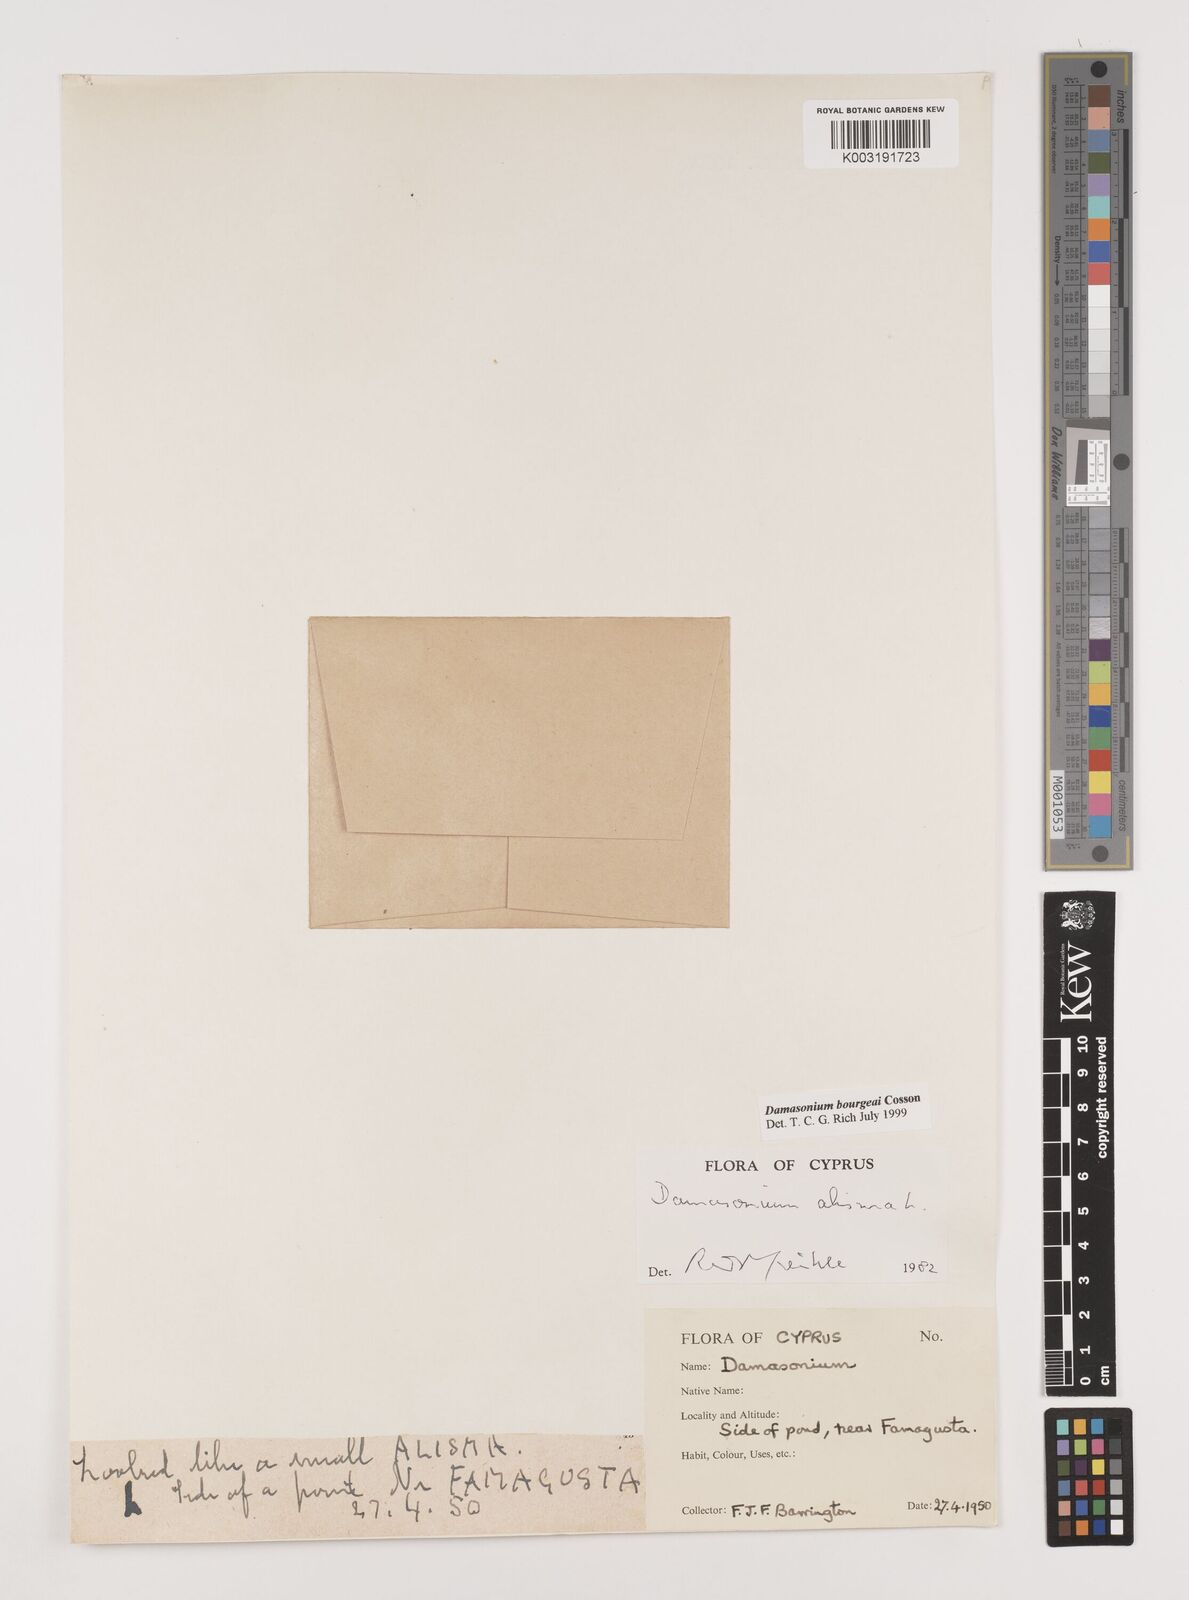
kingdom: Plantae
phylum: Tracheophyta
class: Liliopsida
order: Alismatales
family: Alismataceae
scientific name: Alismataceae
